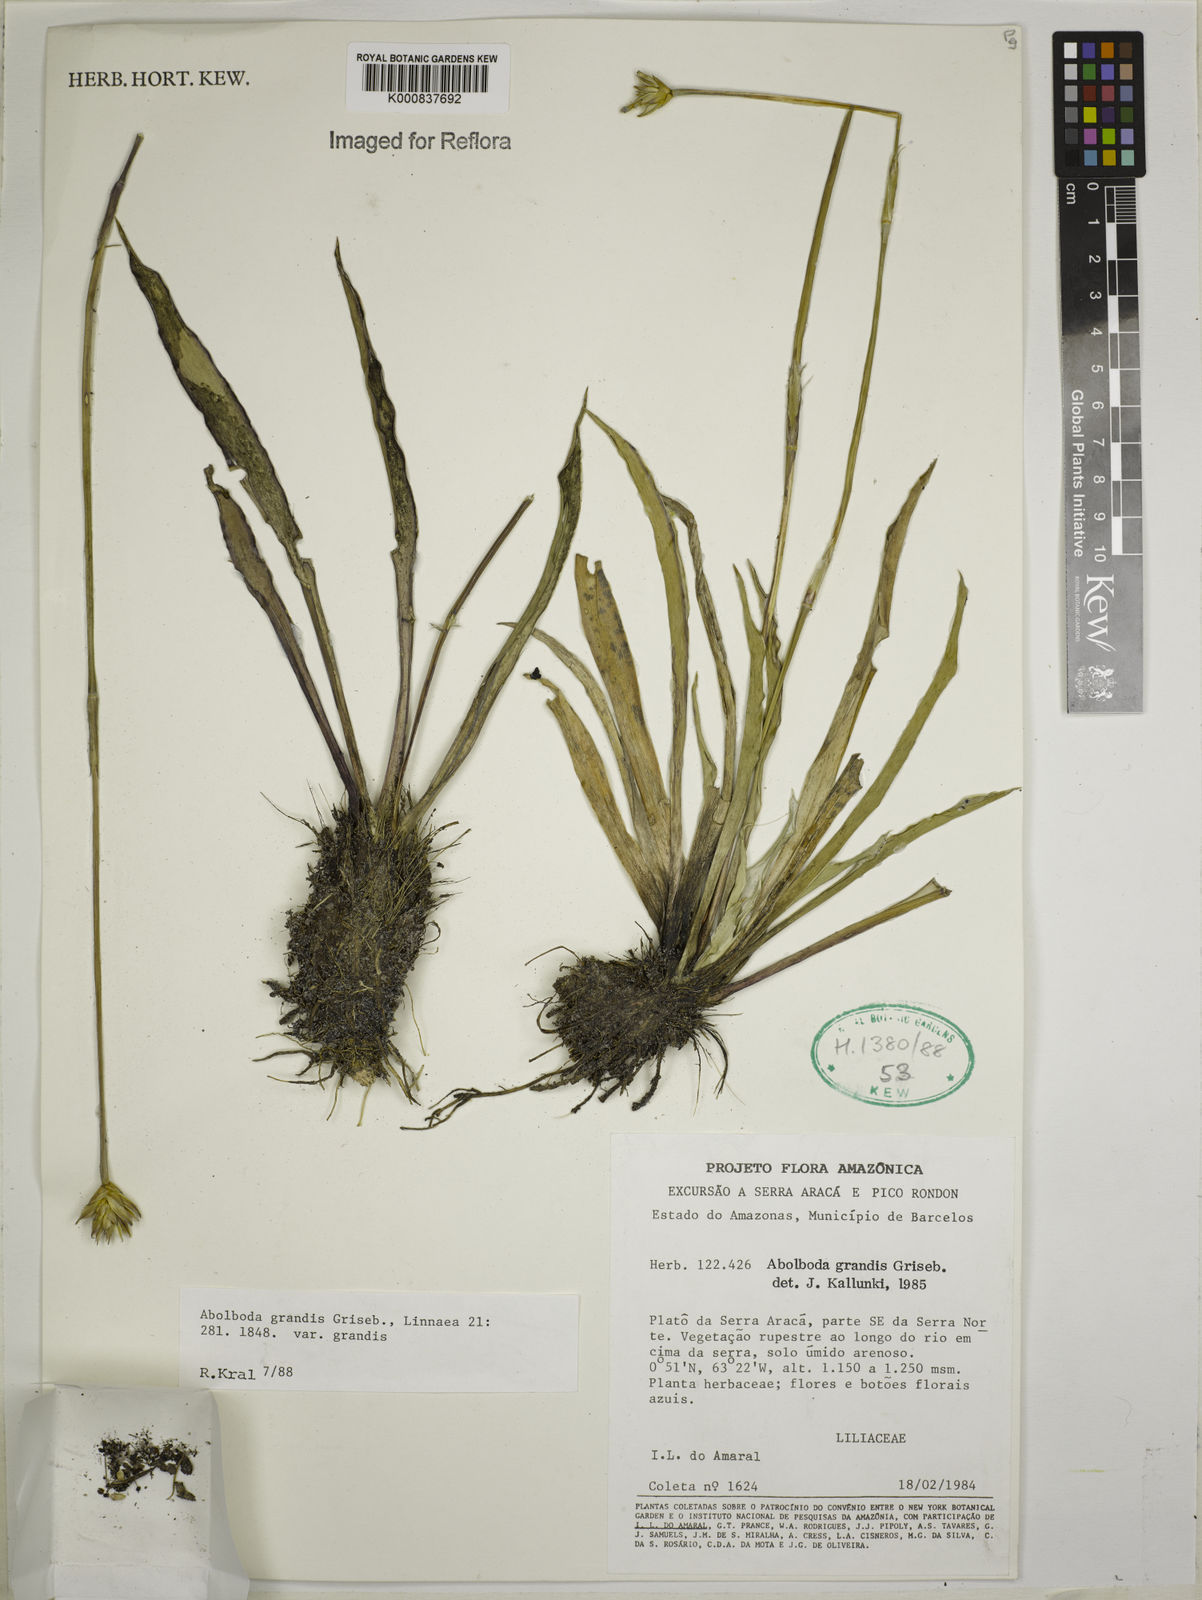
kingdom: Plantae
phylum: Tracheophyta
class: Liliopsida
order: Poales
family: Xyridaceae
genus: Abolboda
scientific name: Abolboda grandis
